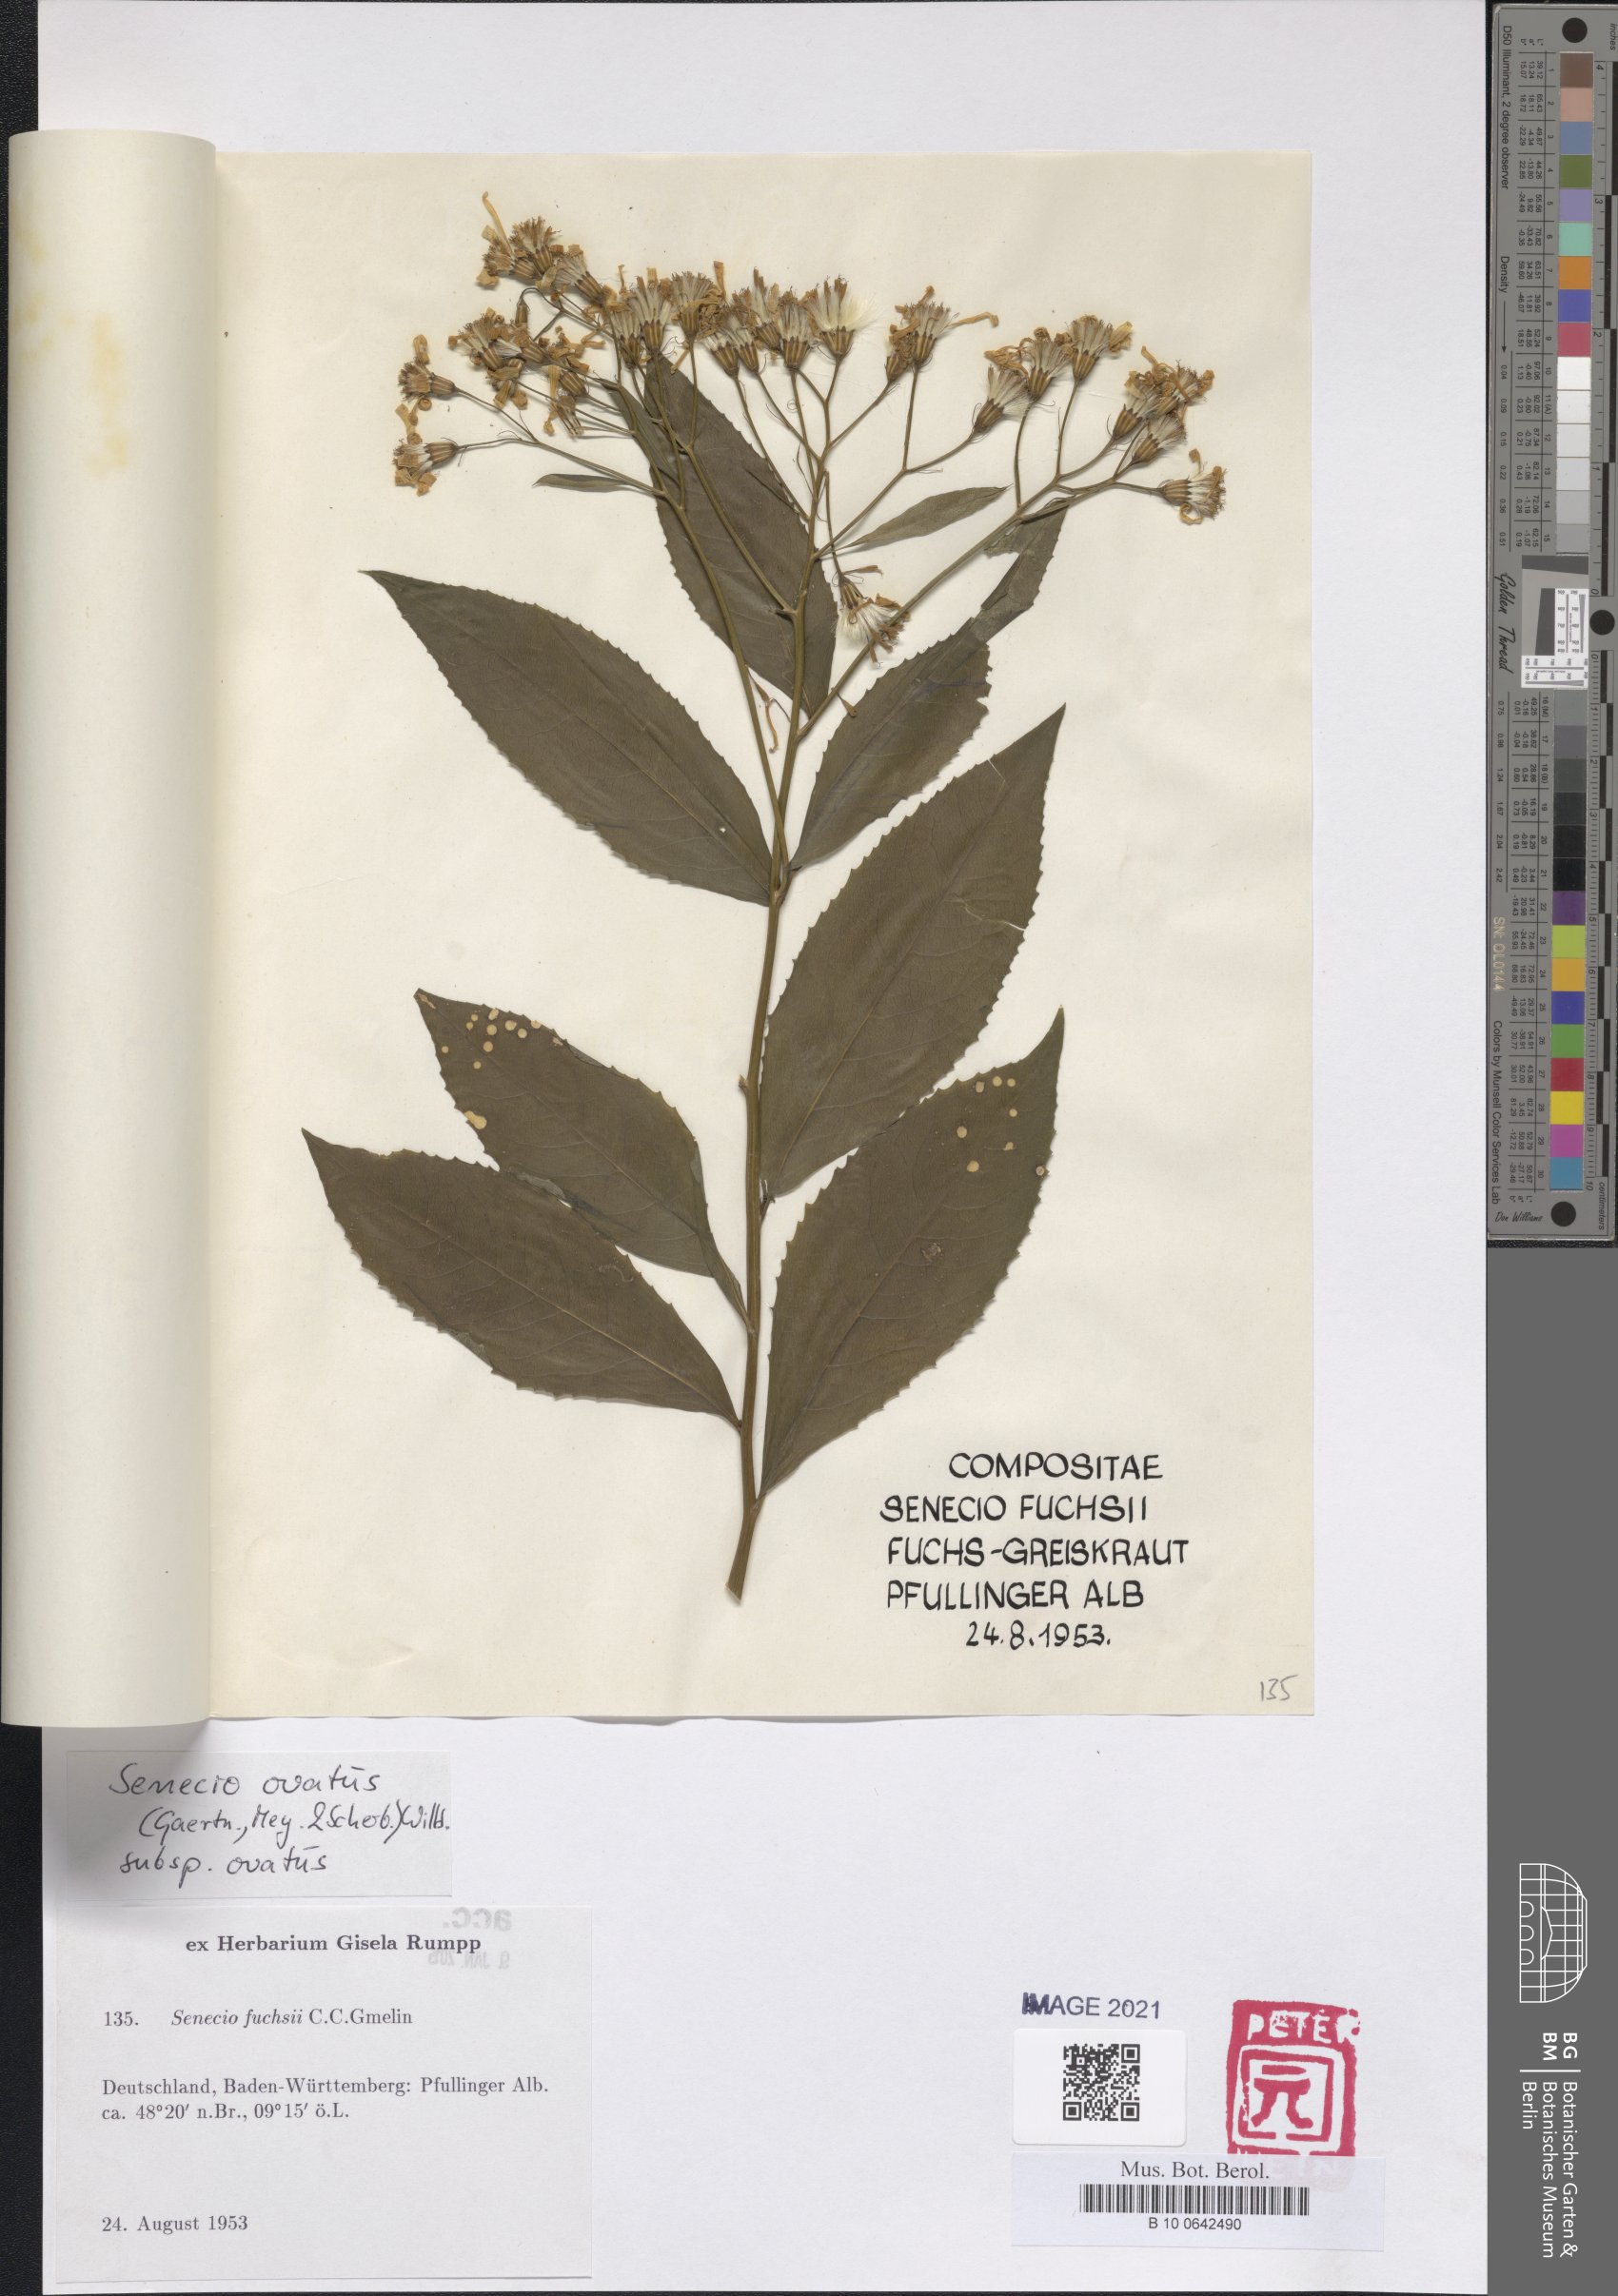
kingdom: Plantae
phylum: Tracheophyta
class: Magnoliopsida
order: Asterales
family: Asteraceae
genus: Senecio
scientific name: Senecio ovatus
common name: Wood ragwort
